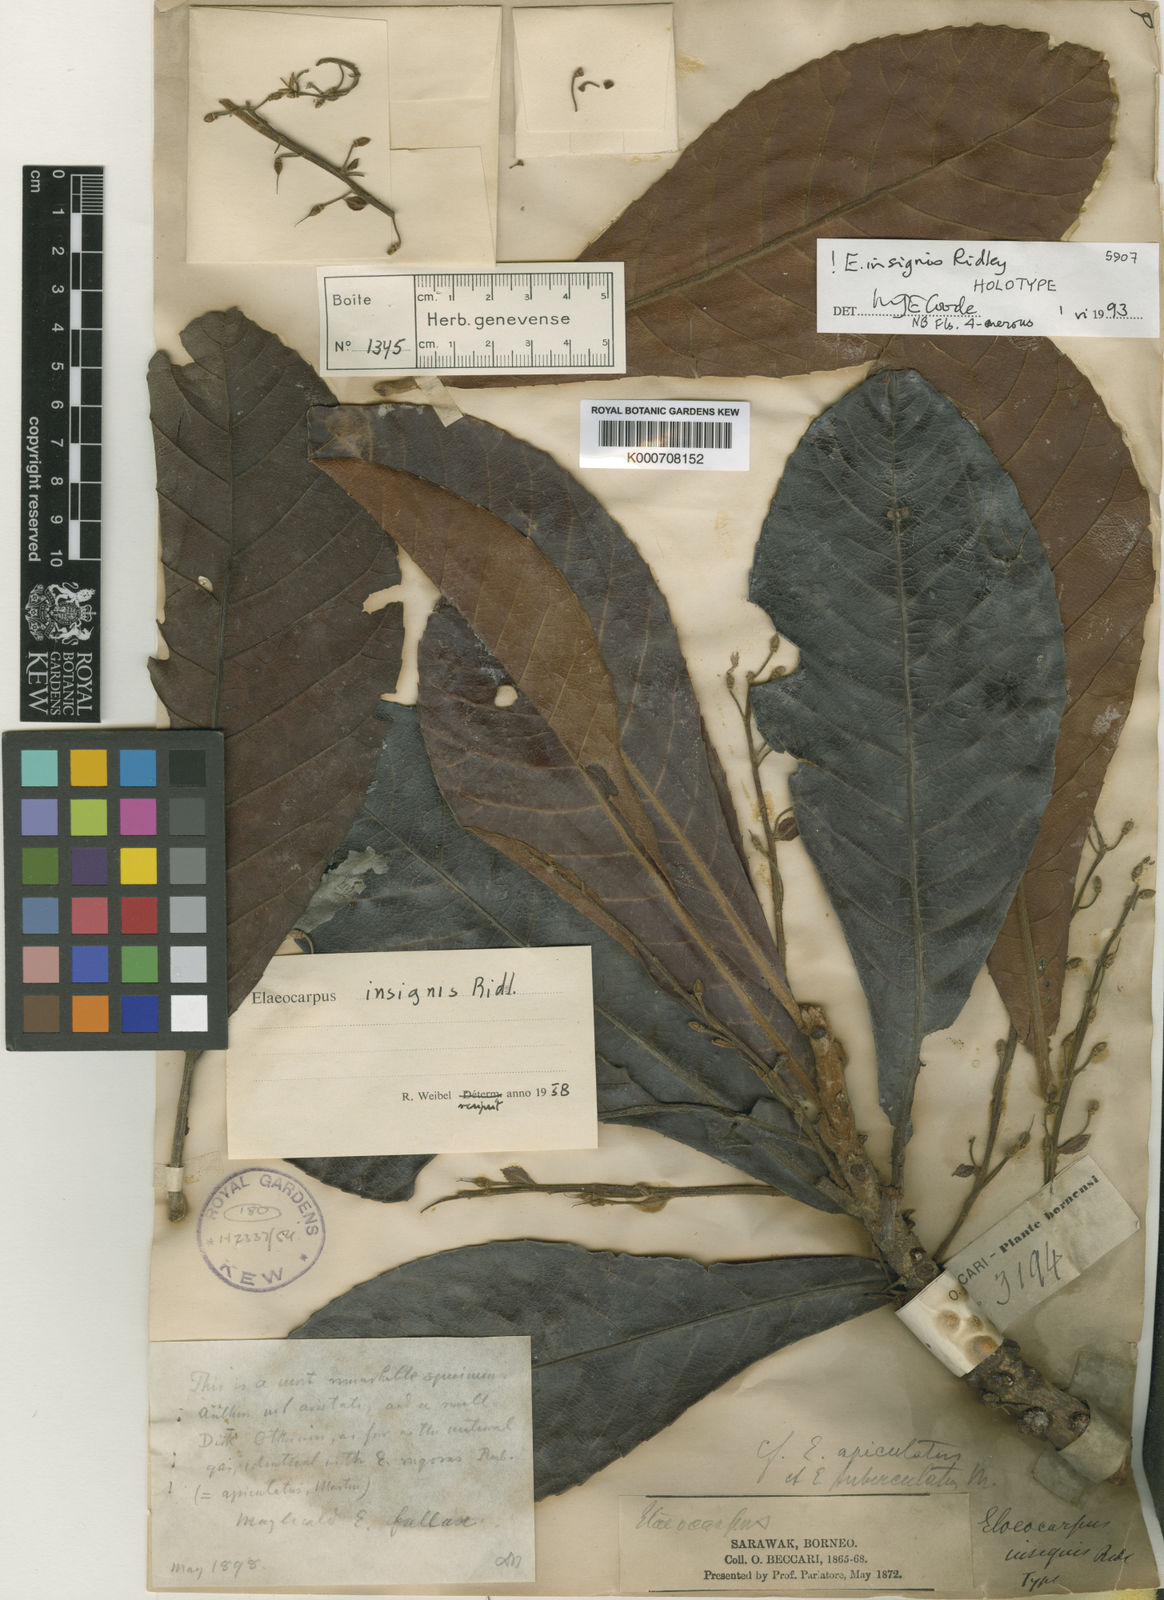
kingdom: Plantae
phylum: Tracheophyta
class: Magnoliopsida
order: Oxalidales
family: Elaeocarpaceae
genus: Elaeocarpus
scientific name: Elaeocarpus insignis
